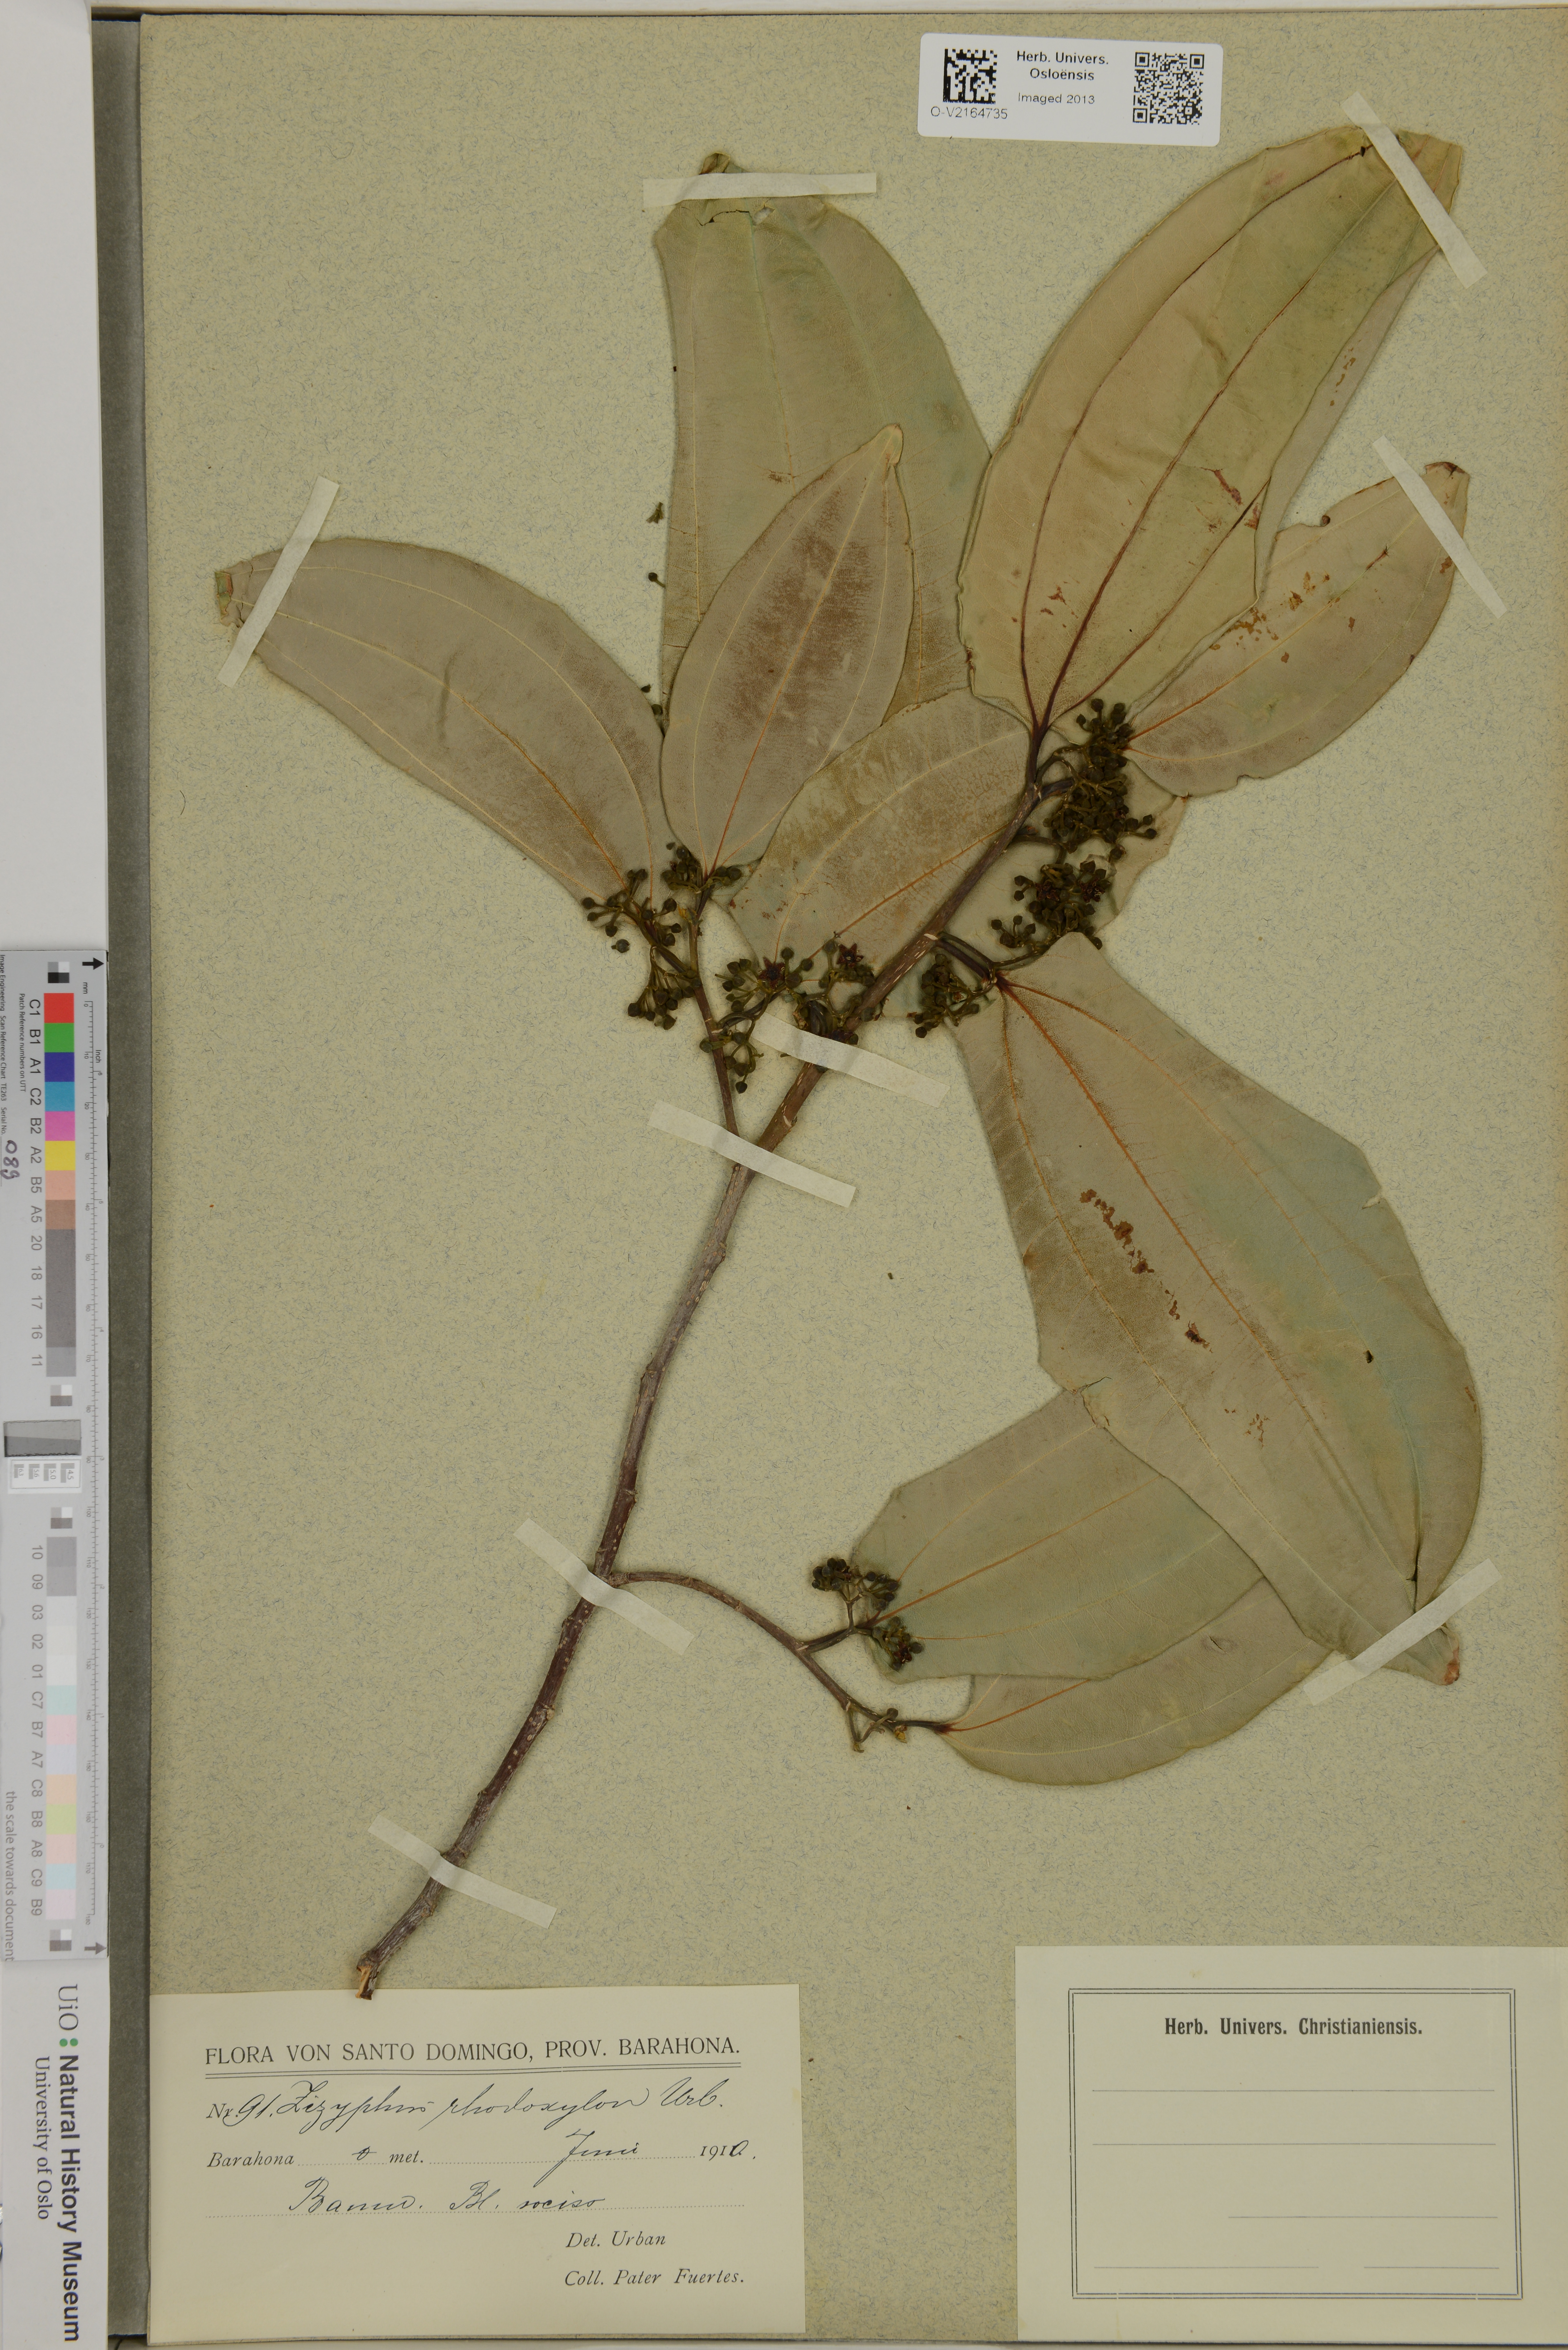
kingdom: Plantae
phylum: Tracheophyta
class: Magnoliopsida
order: Rosales
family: Rhamnaceae
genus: Sarcomphalus
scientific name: Sarcomphalus rhodoxylon
